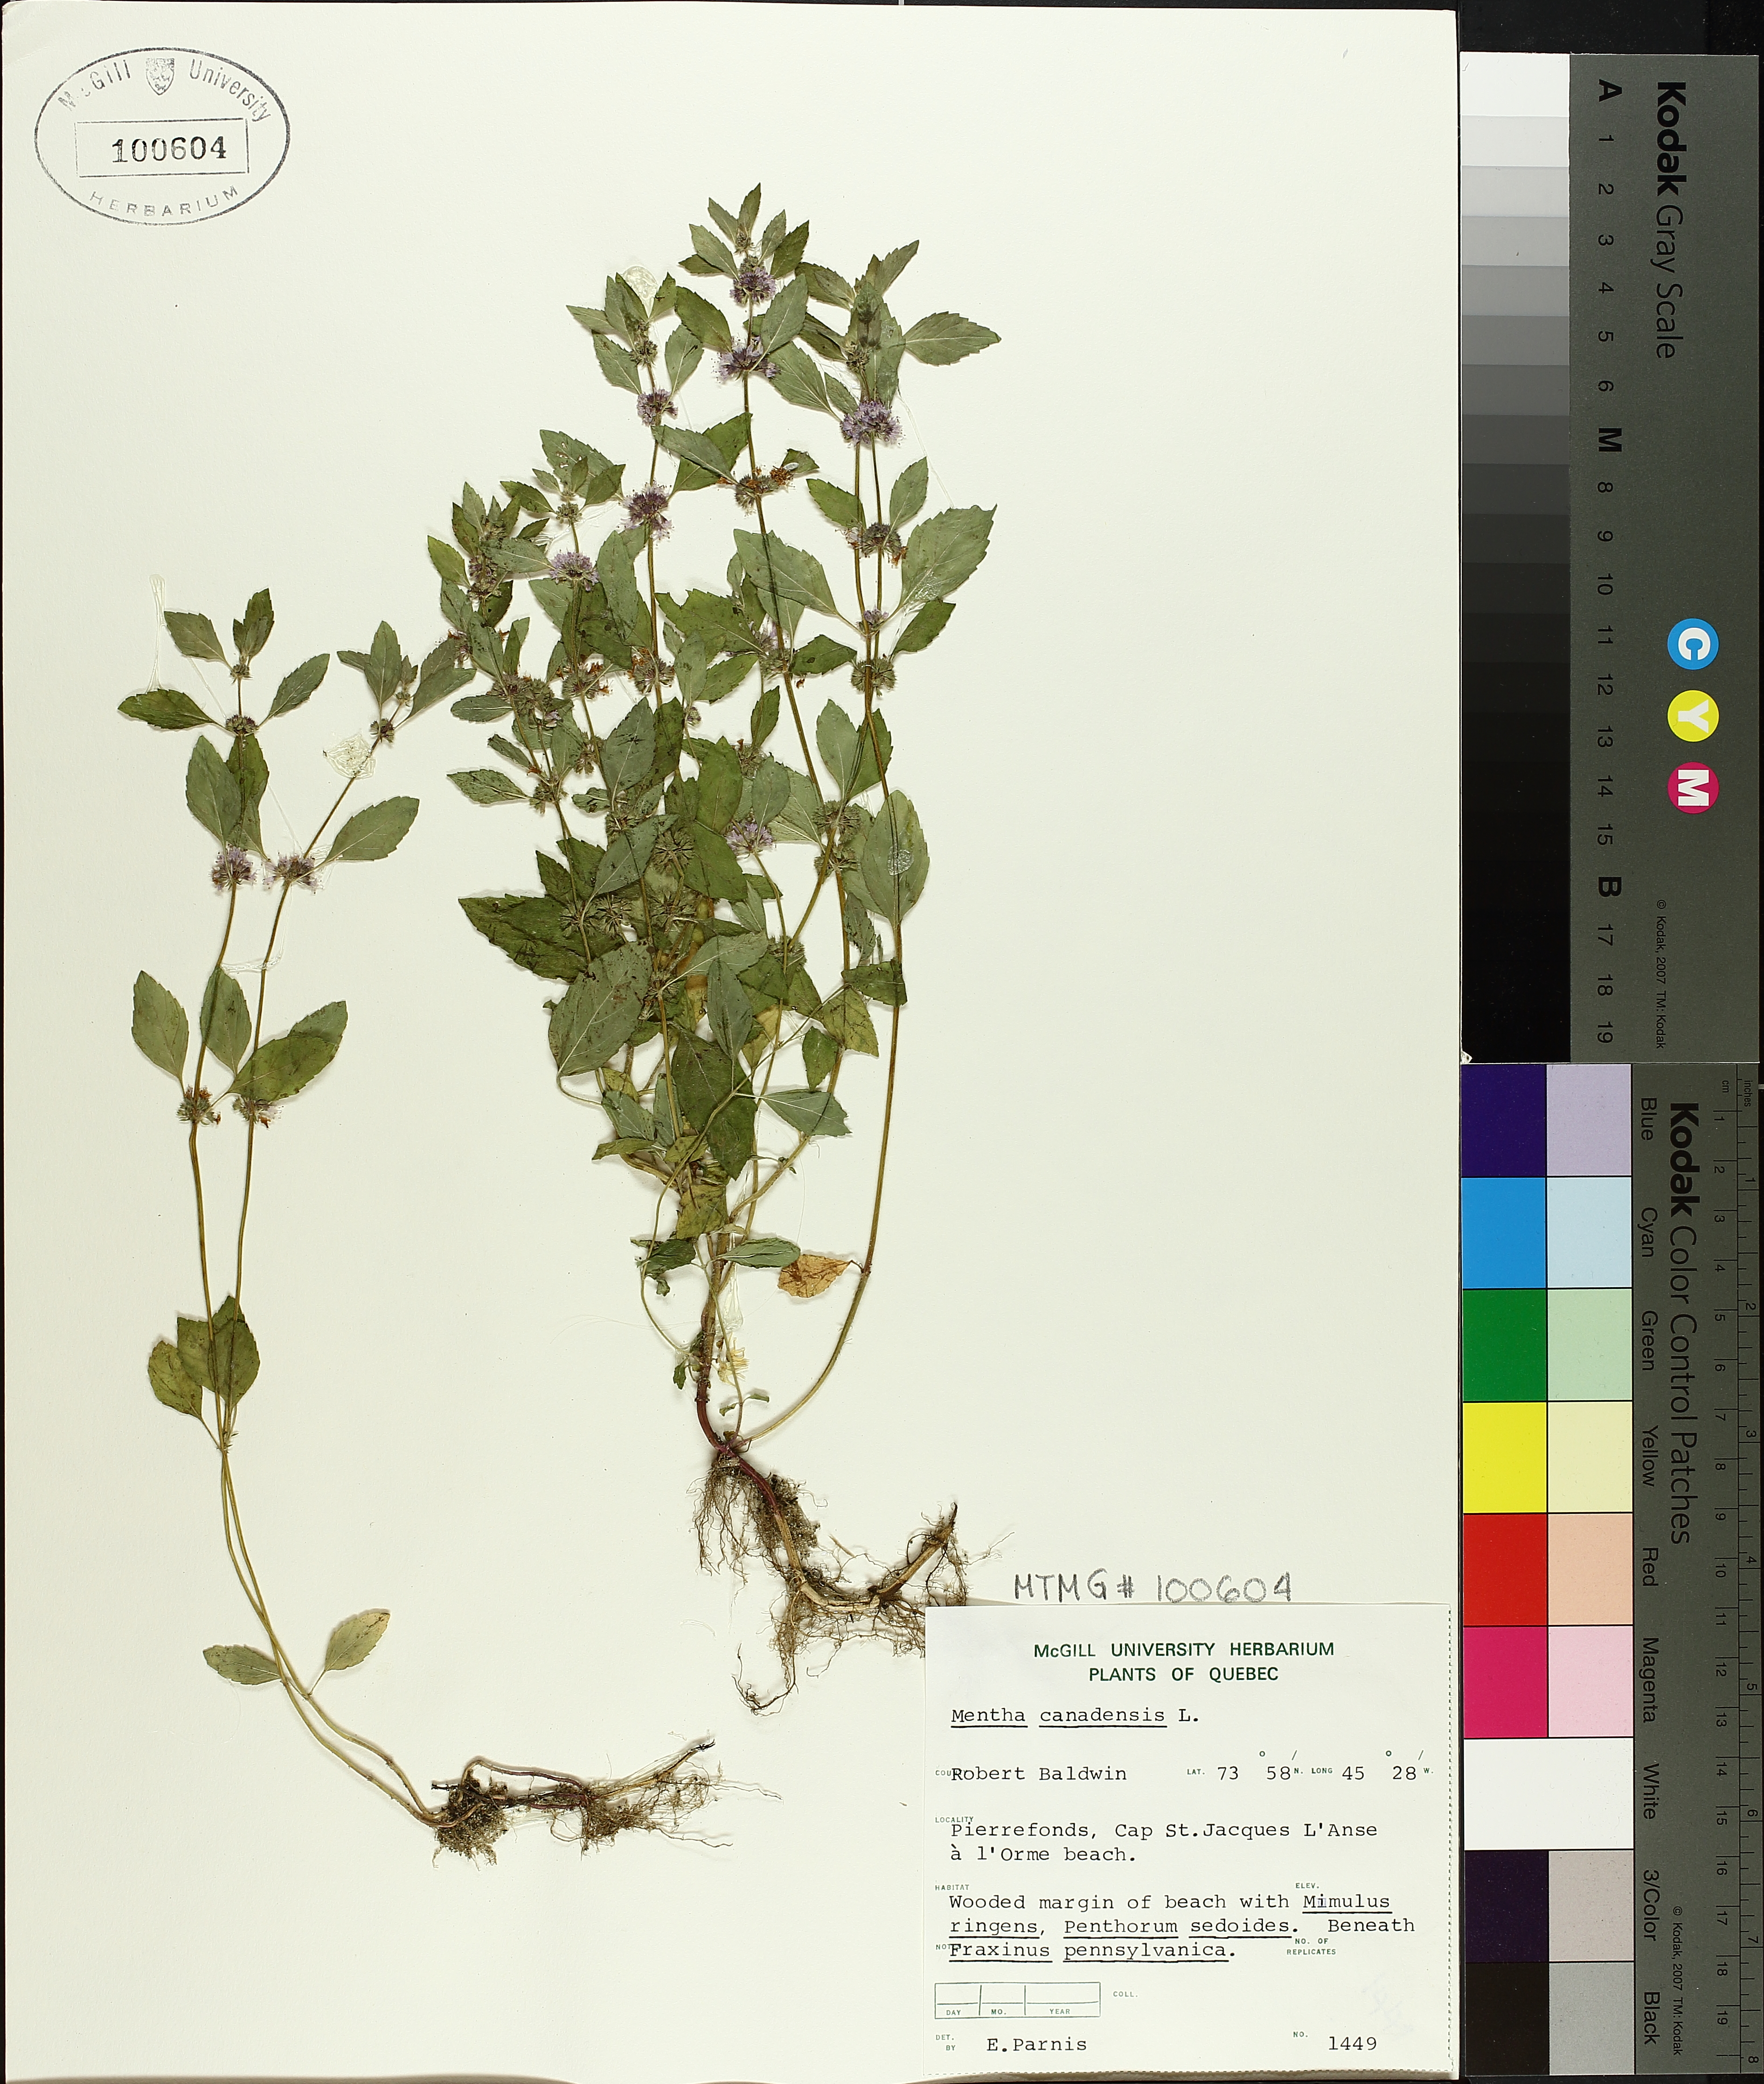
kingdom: Plantae
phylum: Tracheophyta
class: Magnoliopsida
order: Lamiales
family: Lamiaceae
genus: Mentha
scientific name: Mentha canadensis
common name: American corn mint
